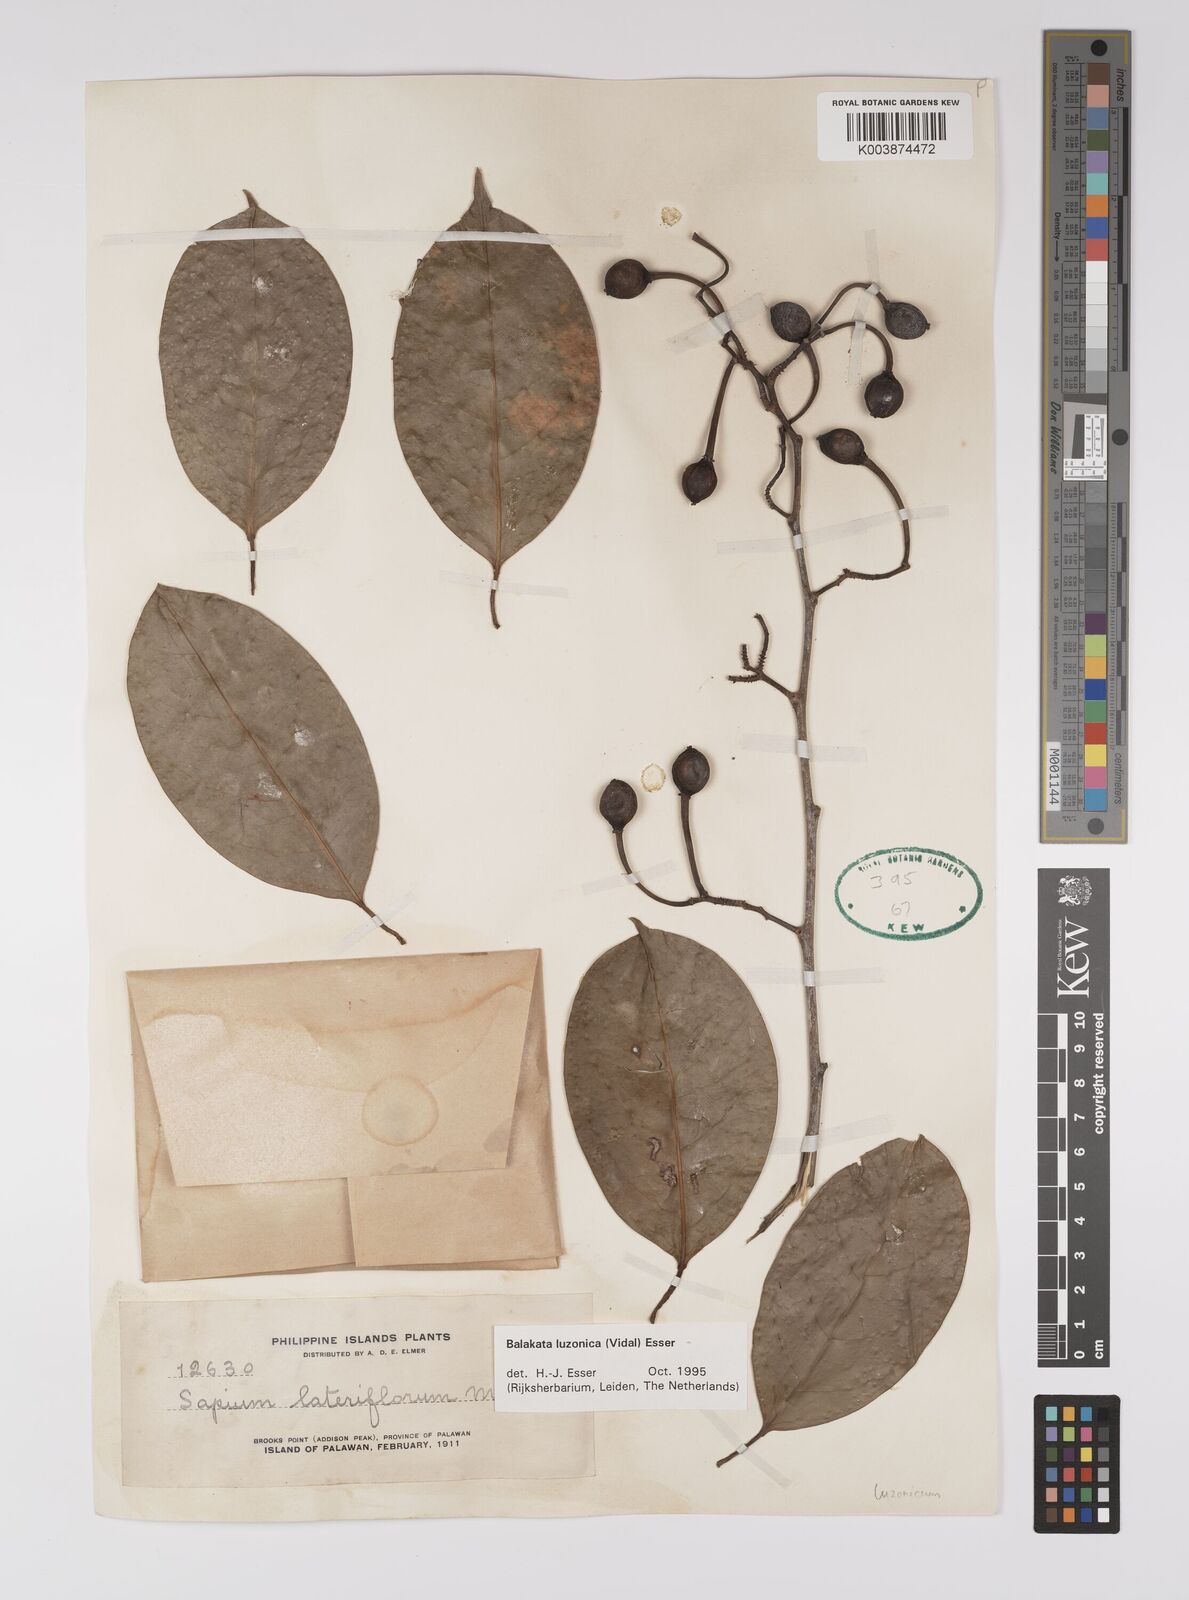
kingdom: Plantae
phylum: Tracheophyta
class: Magnoliopsida
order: Malpighiales
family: Euphorbiaceae
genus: Balakata
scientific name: Balakata luzonica
